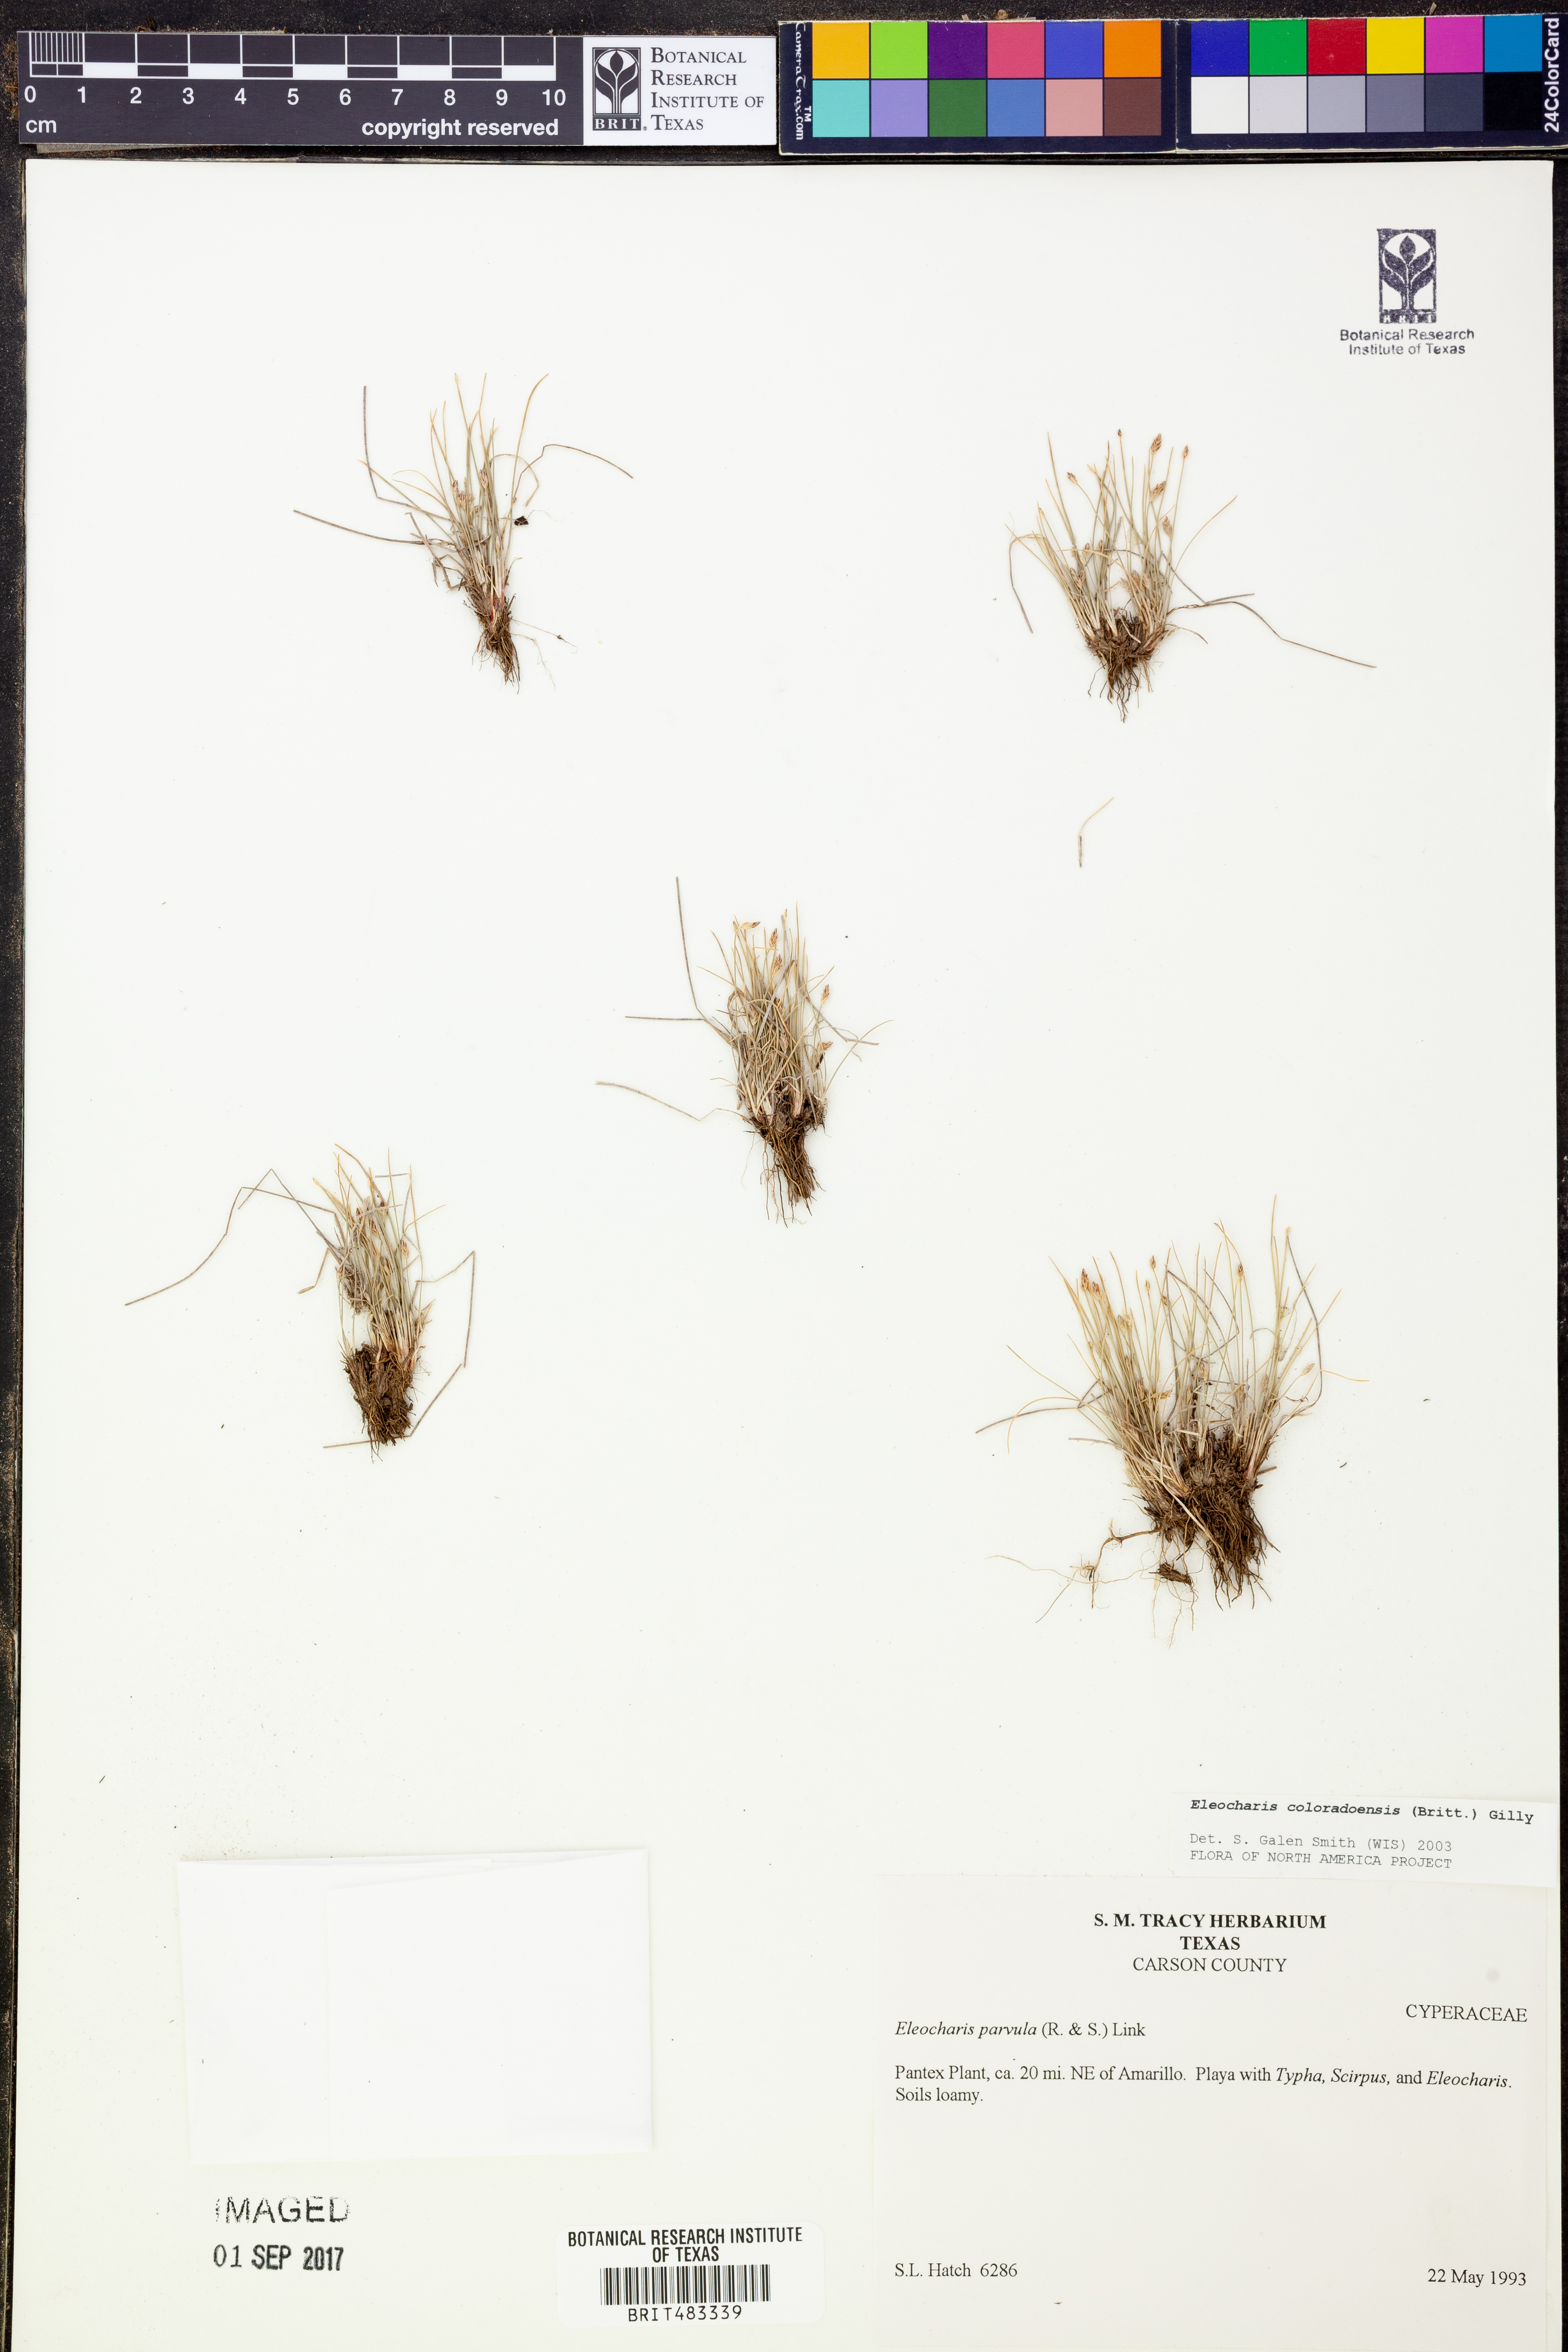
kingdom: Plantae
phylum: Tracheophyta
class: Liliopsida
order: Poales
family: Cyperaceae
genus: Eleocharis
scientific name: Eleocharis coloradoensis
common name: Colorado spikerush
